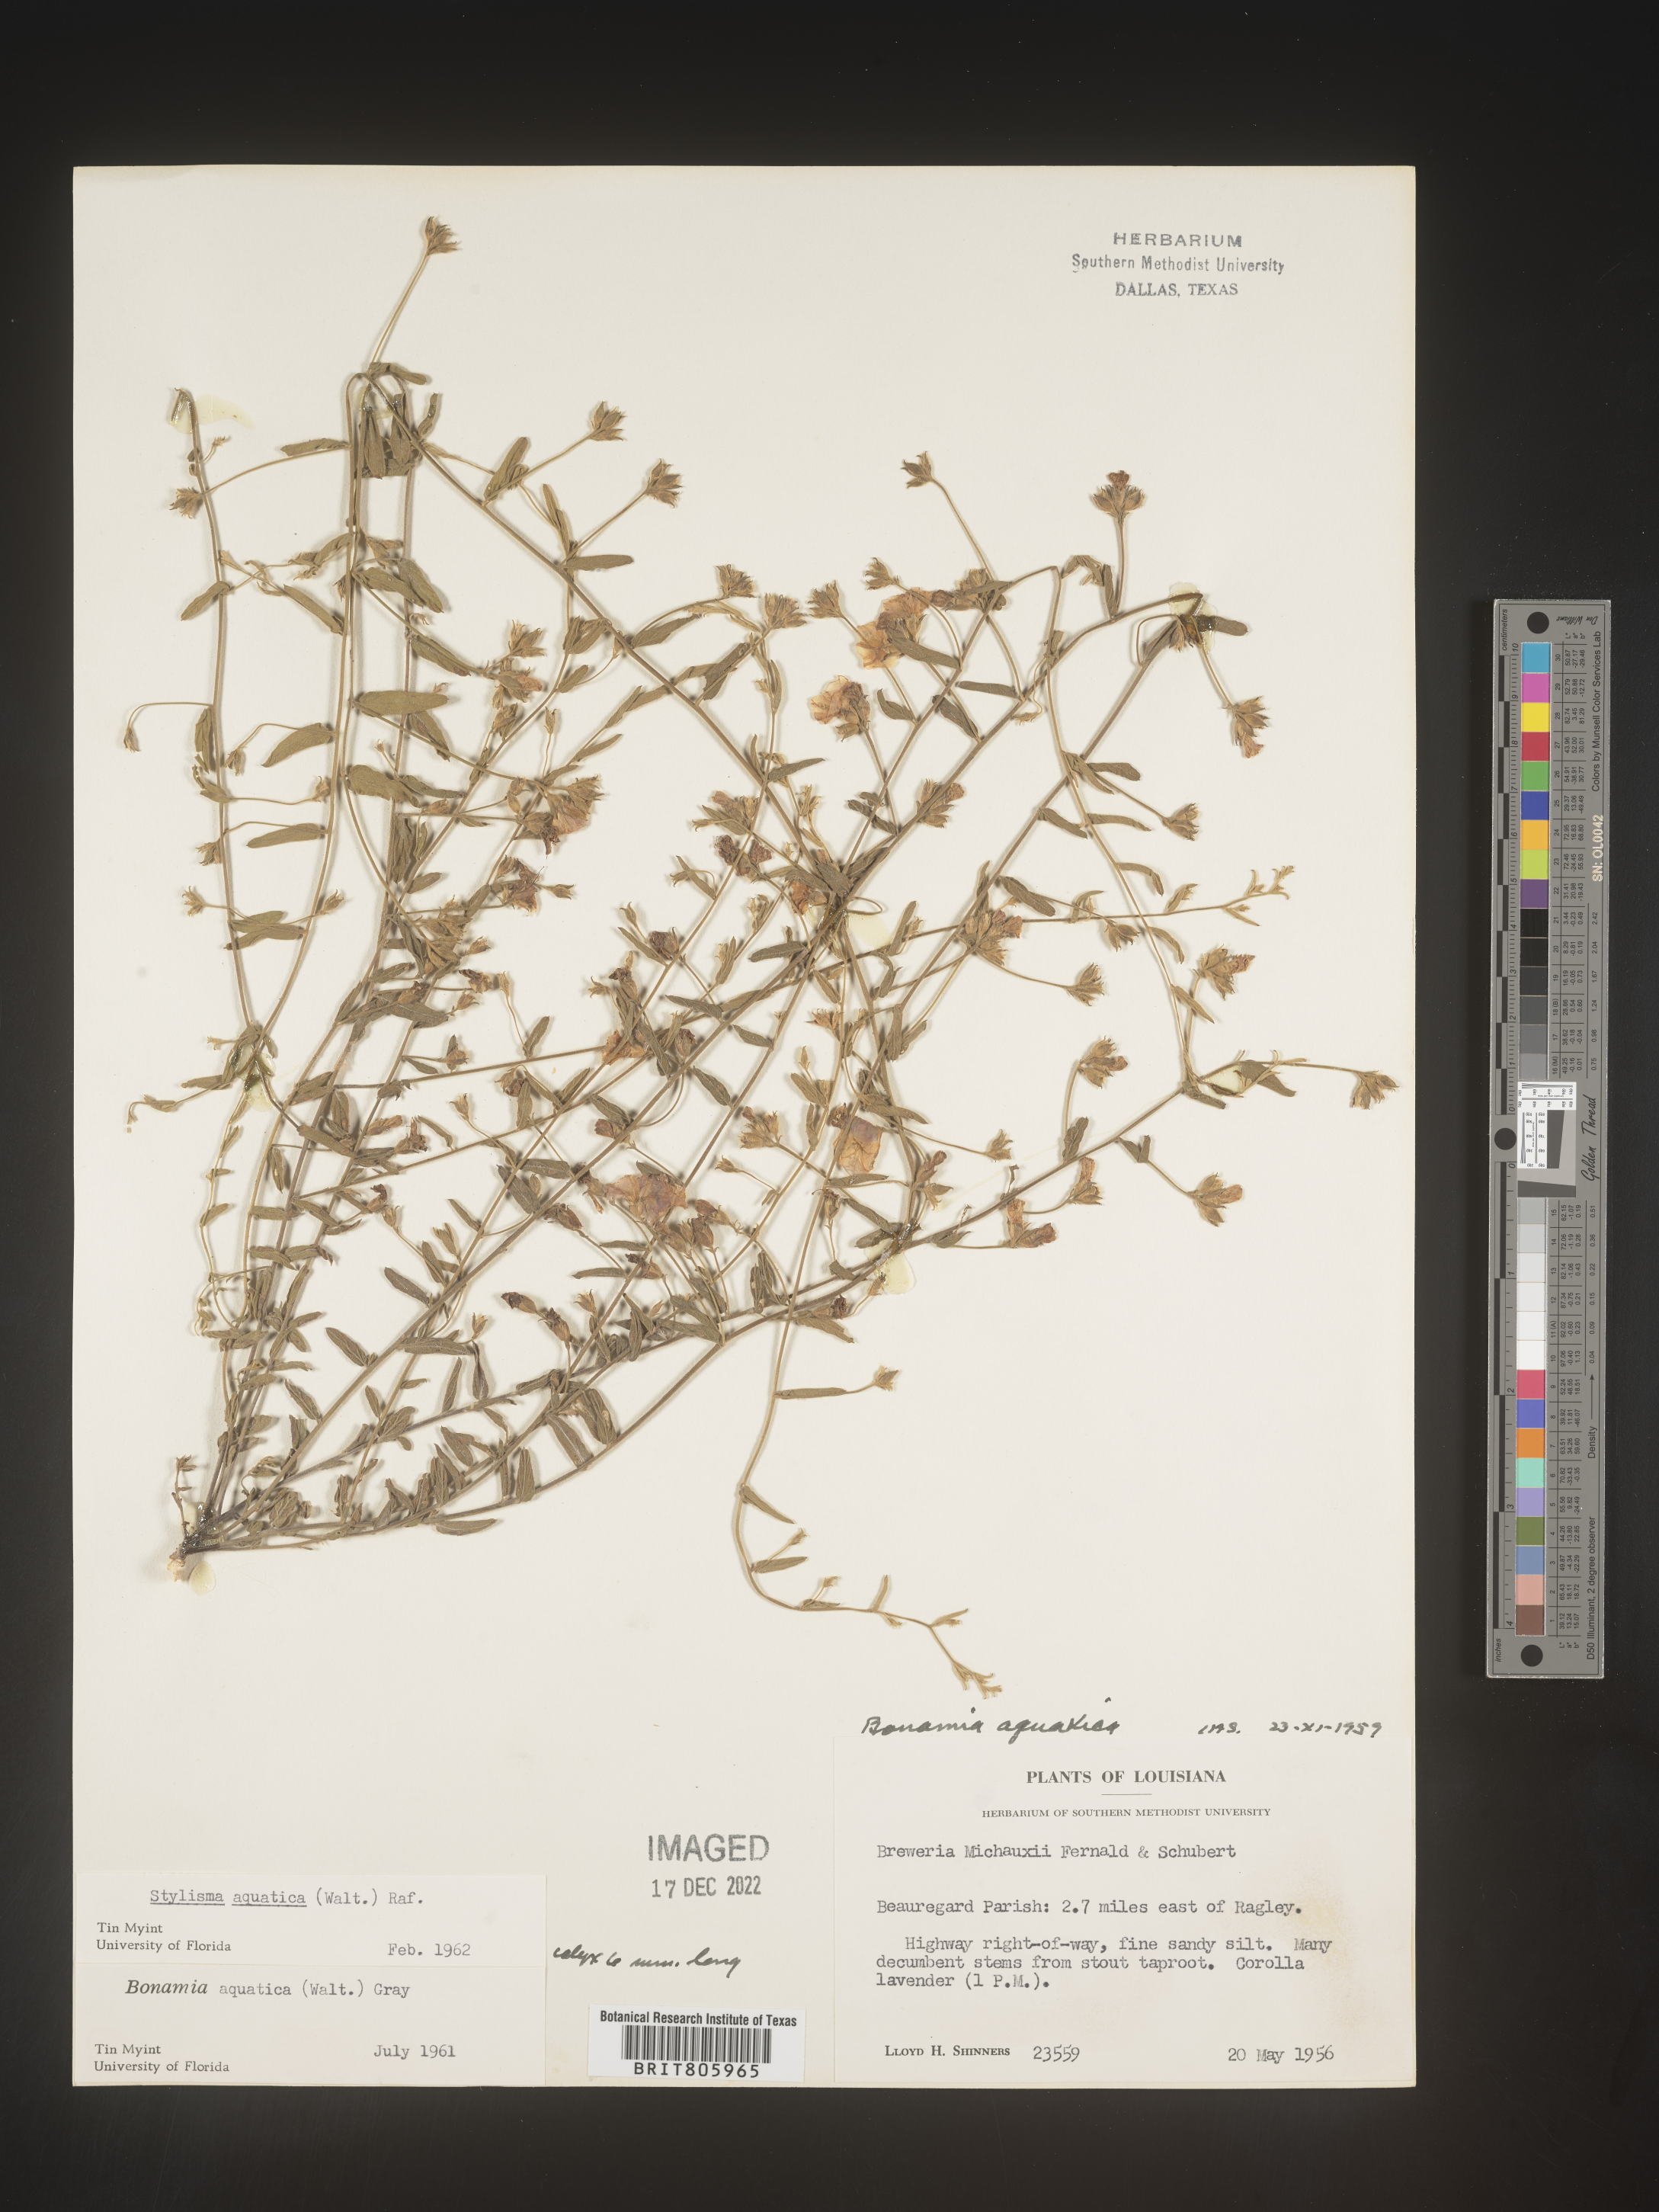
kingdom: Plantae
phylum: Tracheophyta
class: Magnoliopsida
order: Solanales
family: Convolvulaceae
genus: Stylisma
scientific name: Stylisma
